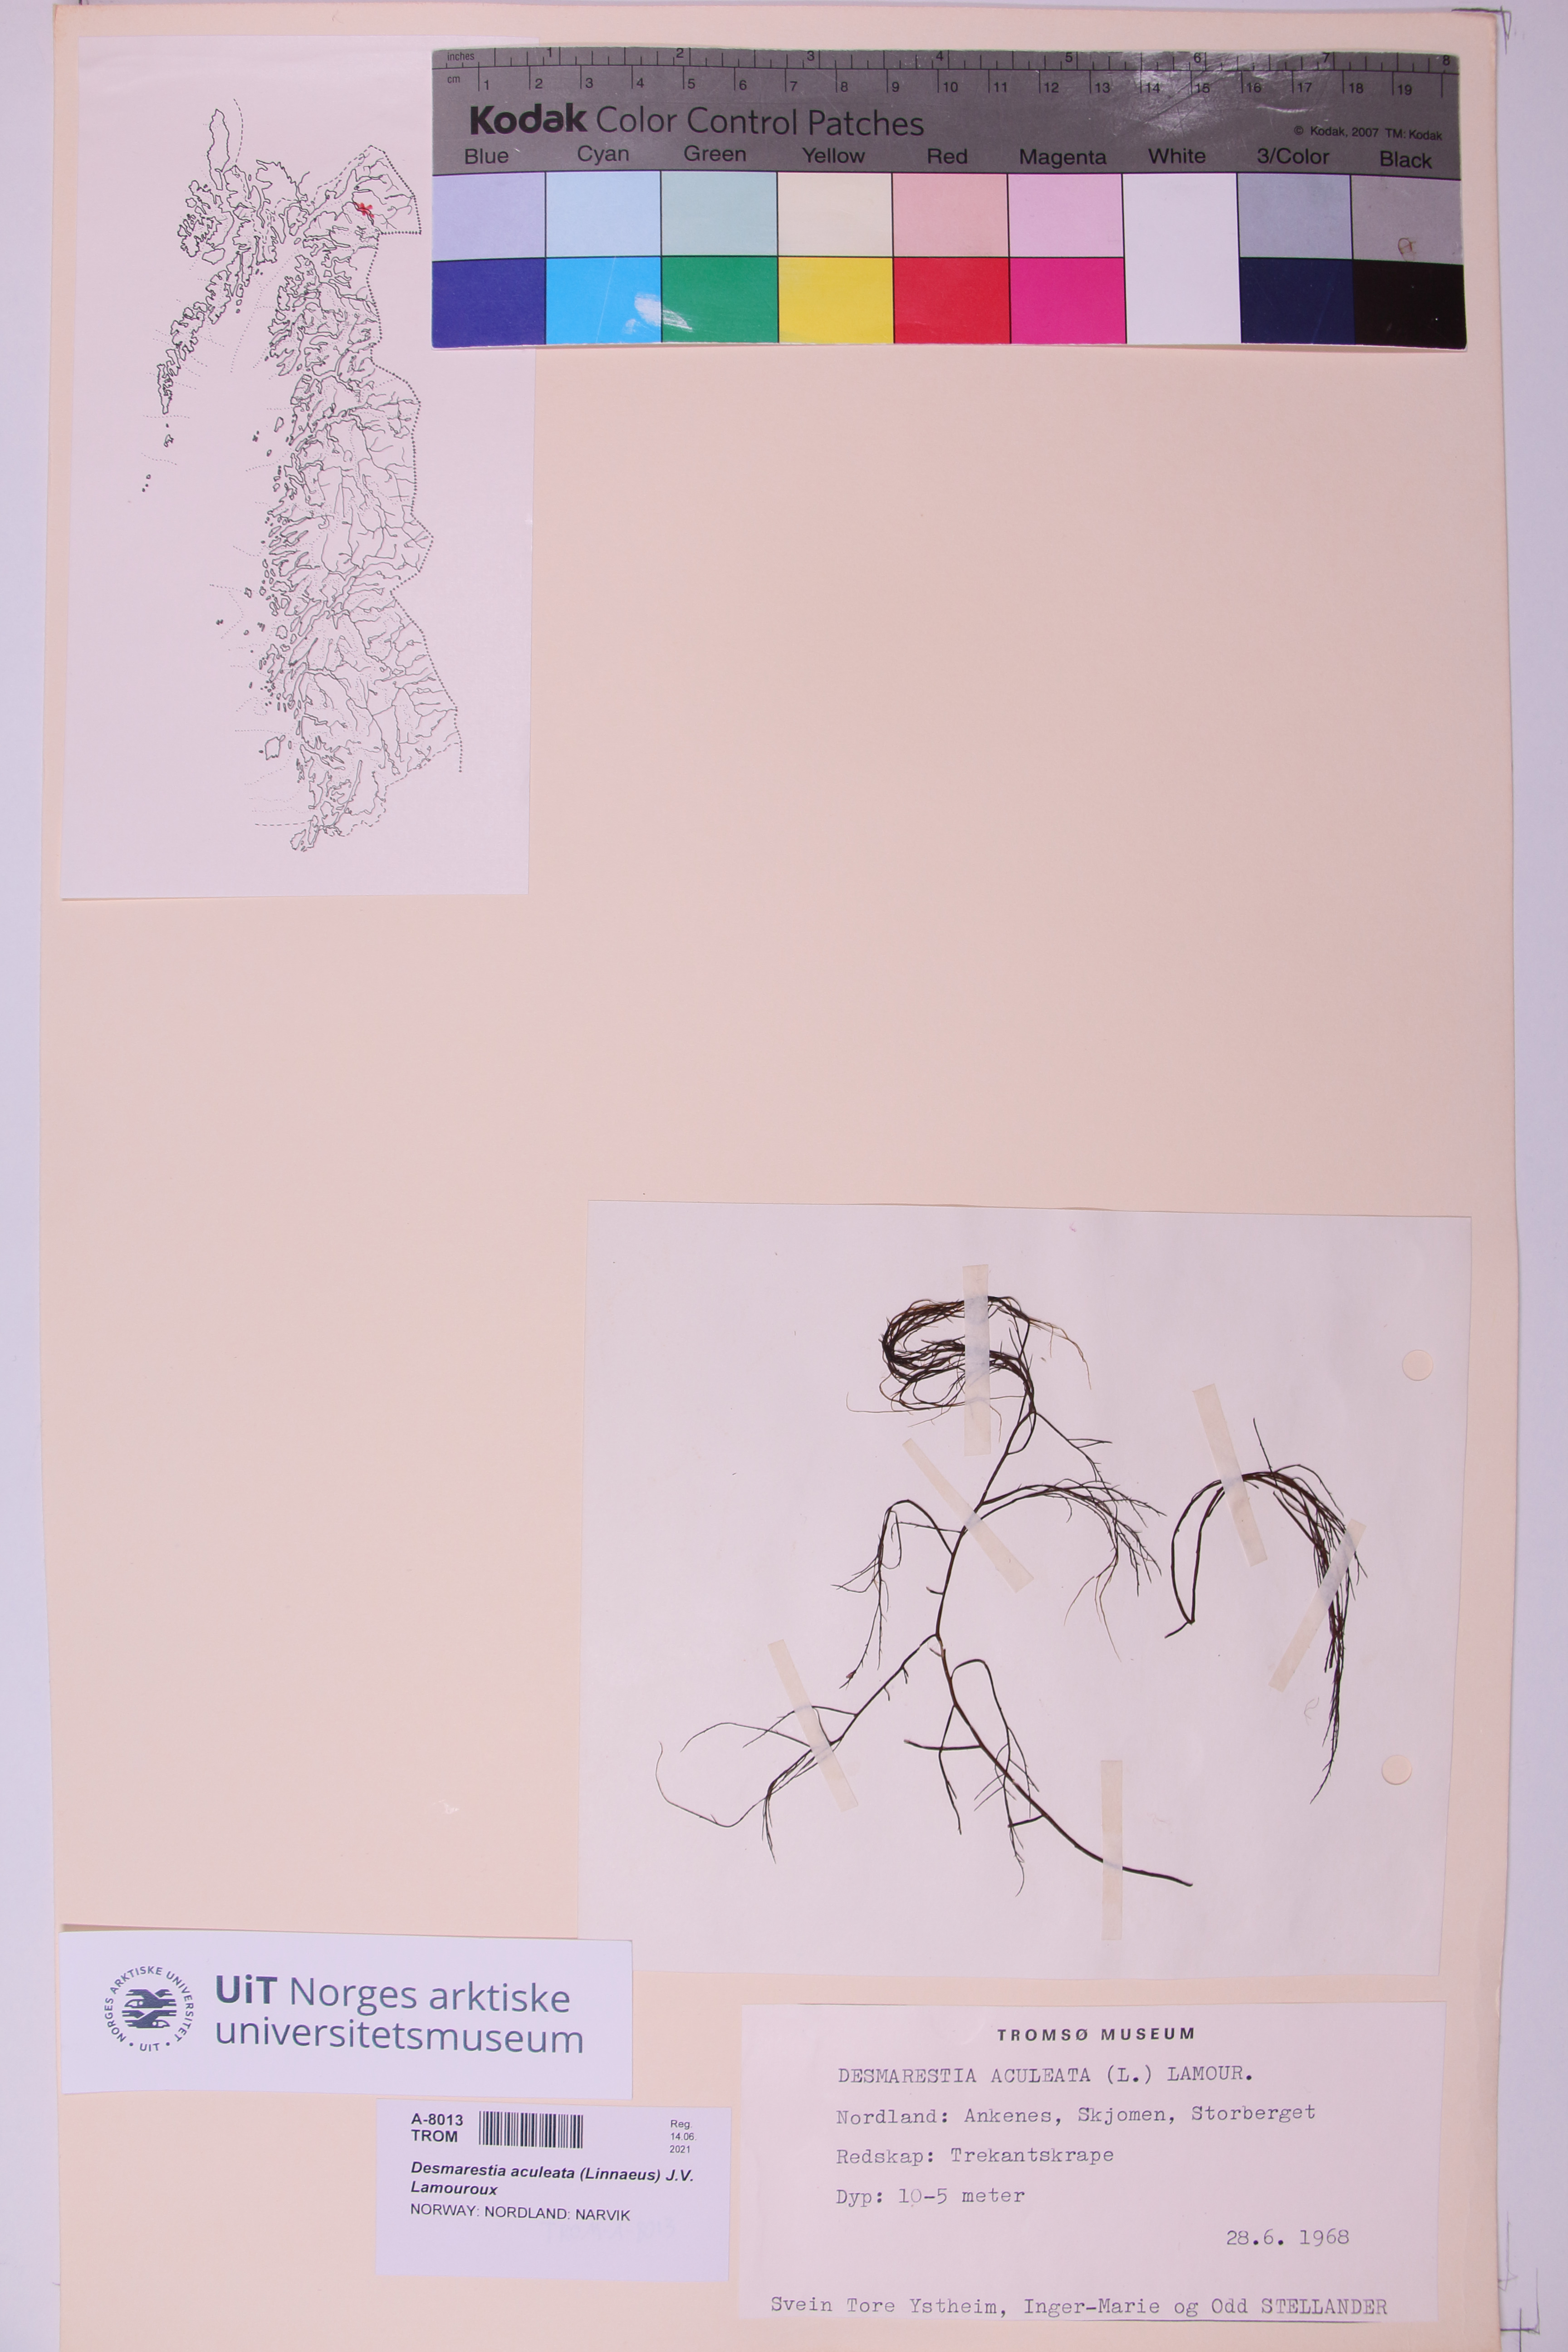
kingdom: Chromista
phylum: Ochrophyta
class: Phaeophyceae
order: Desmarestiales
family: Desmarestiaceae
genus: Desmarestia
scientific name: Desmarestia aculeata
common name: Witch's hair
